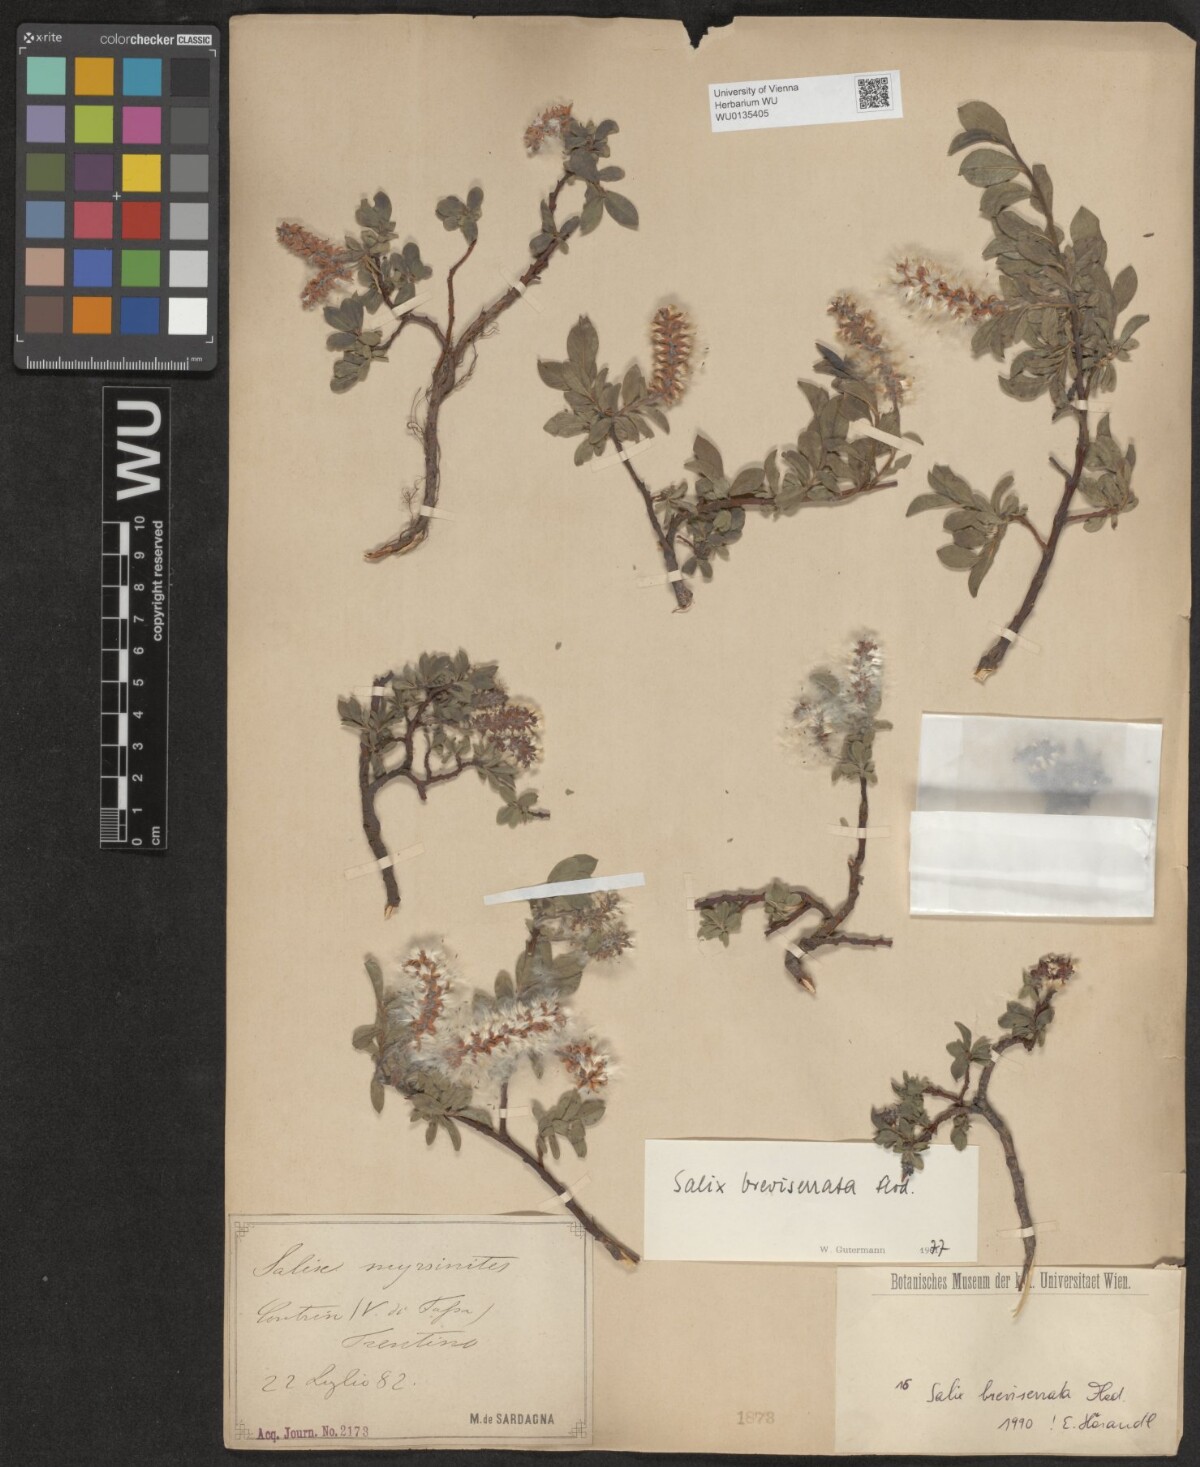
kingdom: Plantae
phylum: Tracheophyta
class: Magnoliopsida
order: Malpighiales
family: Salicaceae
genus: Salix
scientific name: Salix breviserrata
